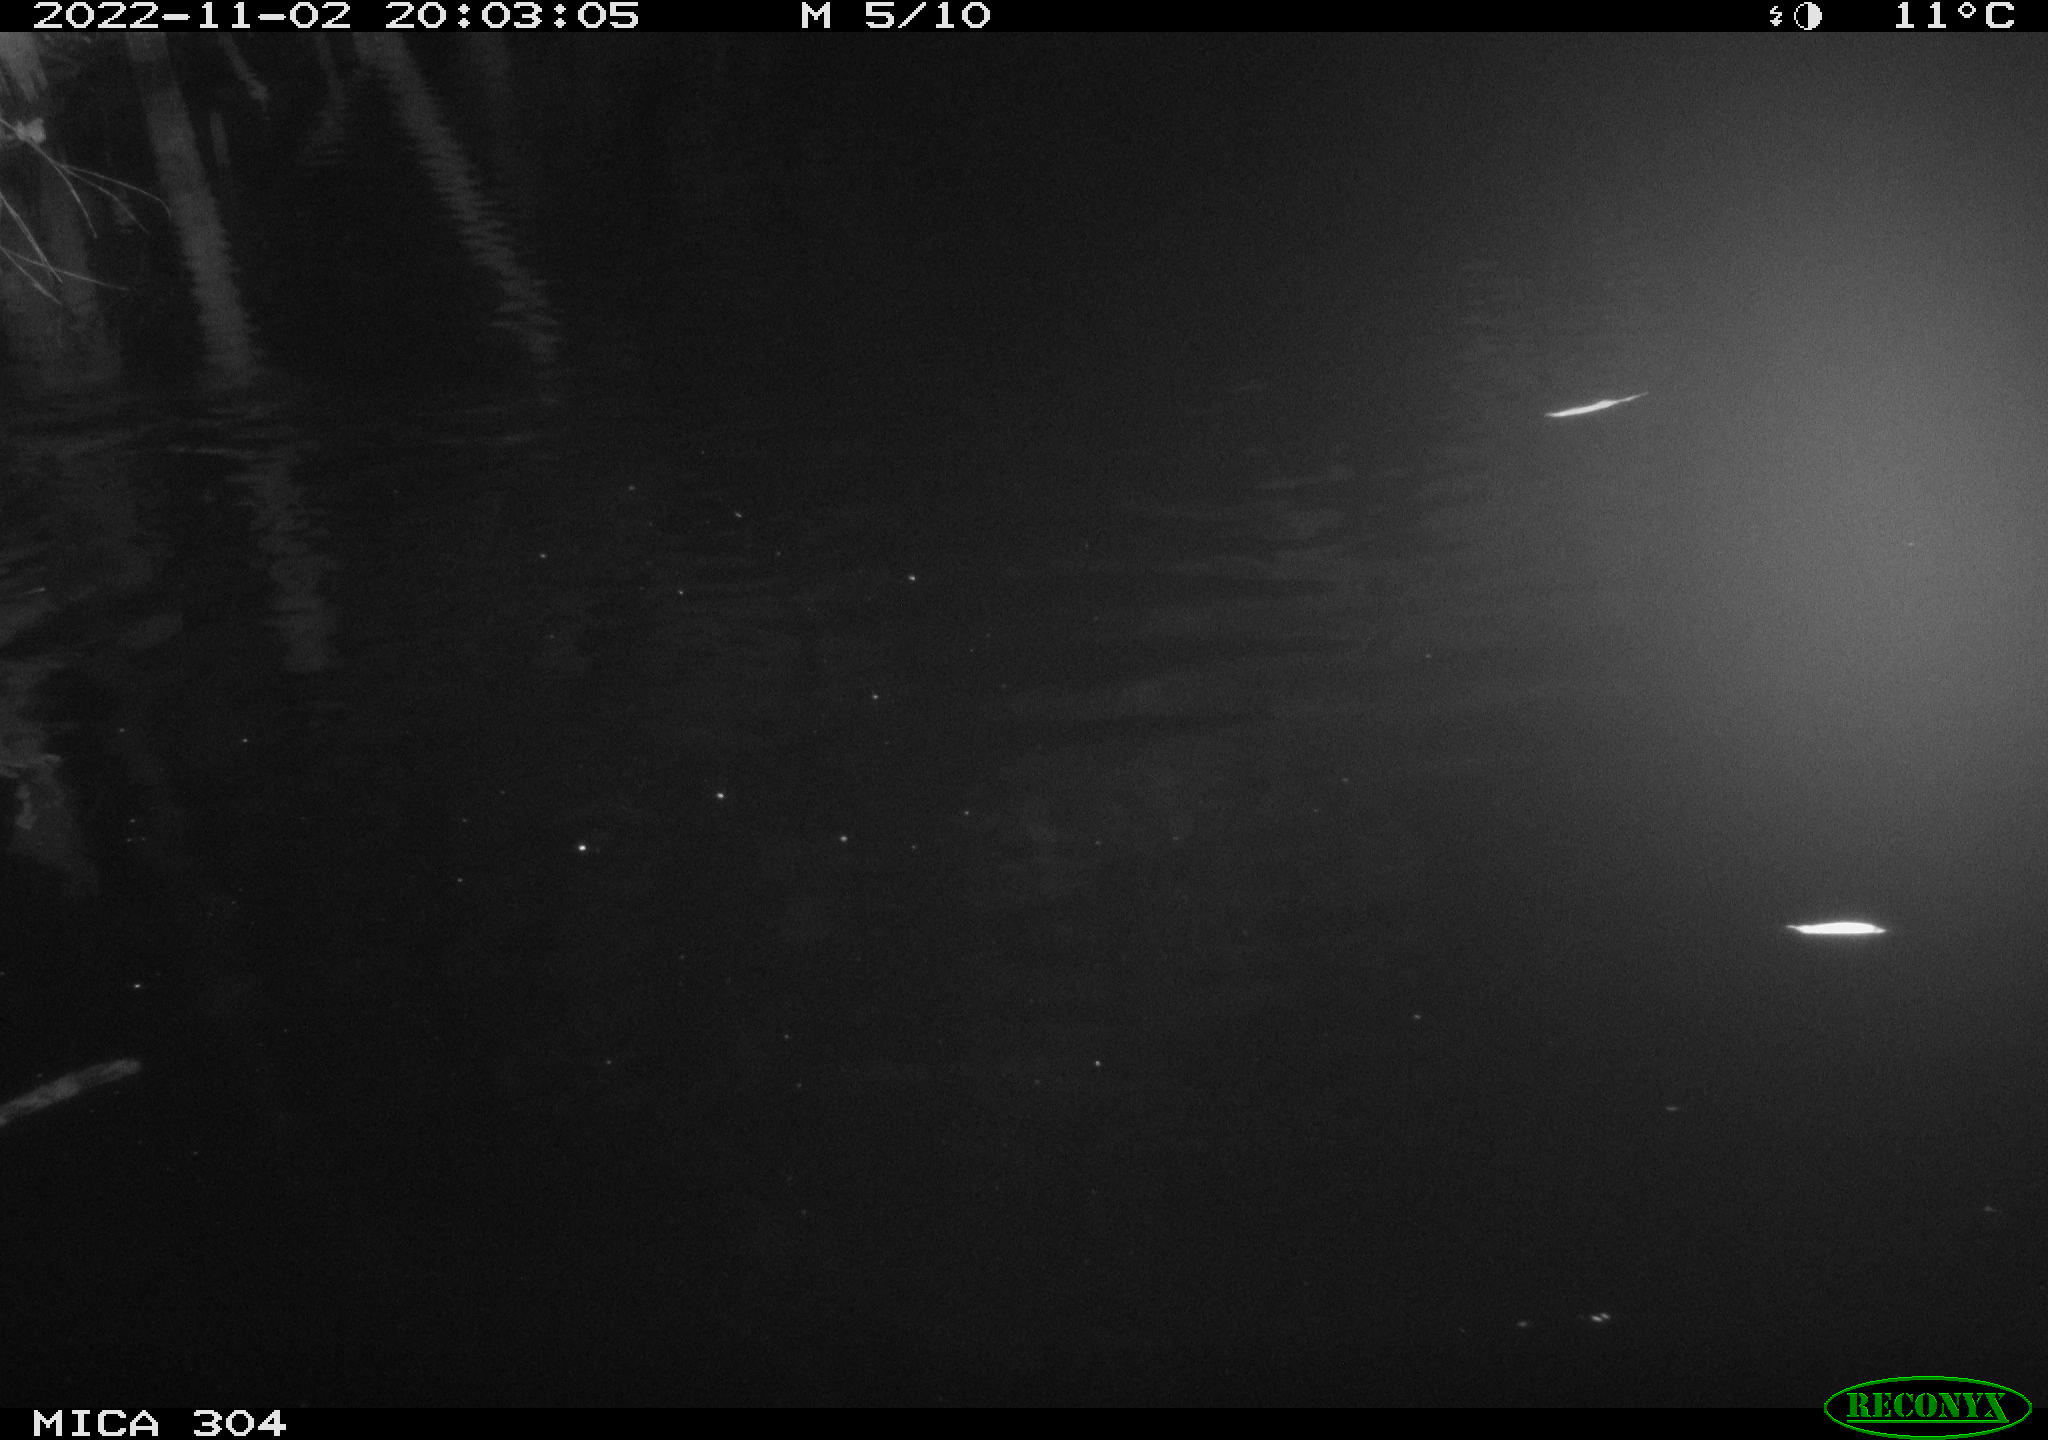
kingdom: Animalia
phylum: Chordata
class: Mammalia
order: Rodentia
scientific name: Rodentia
